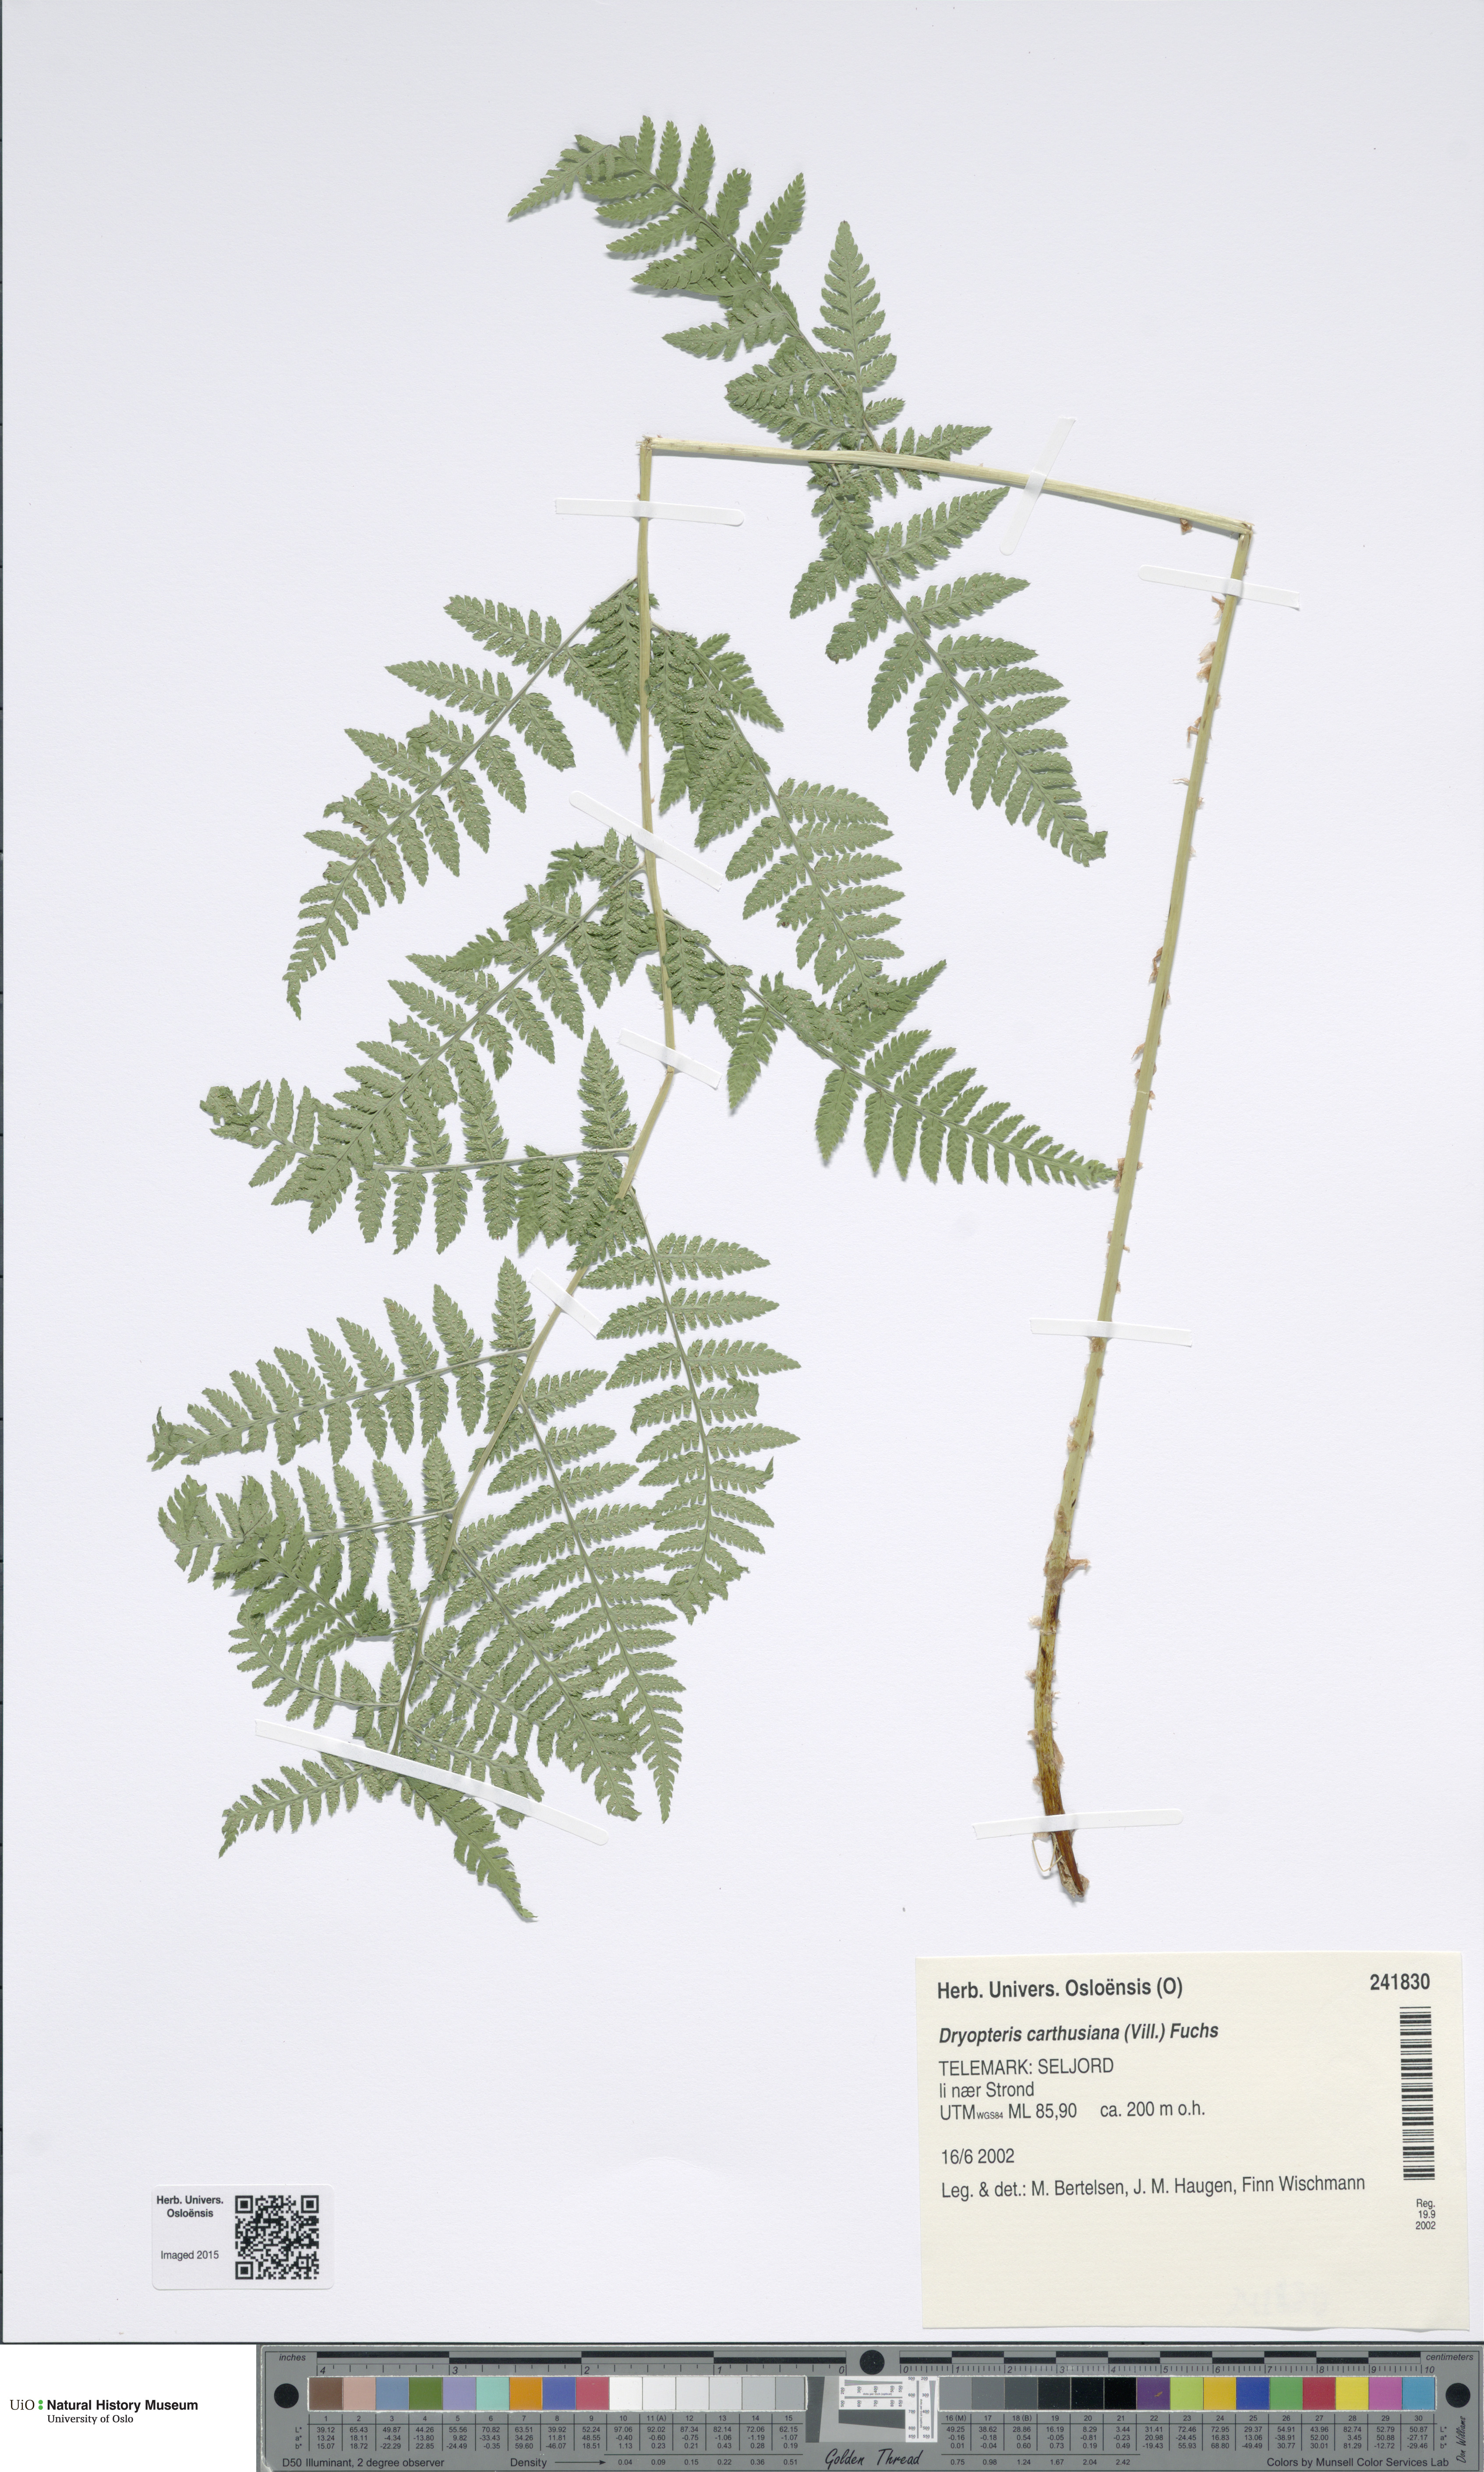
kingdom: Plantae
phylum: Tracheophyta
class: Polypodiopsida
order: Polypodiales
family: Dryopteridaceae
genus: Dryopteris
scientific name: Dryopteris carthusiana
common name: Narrow buckler-fern
